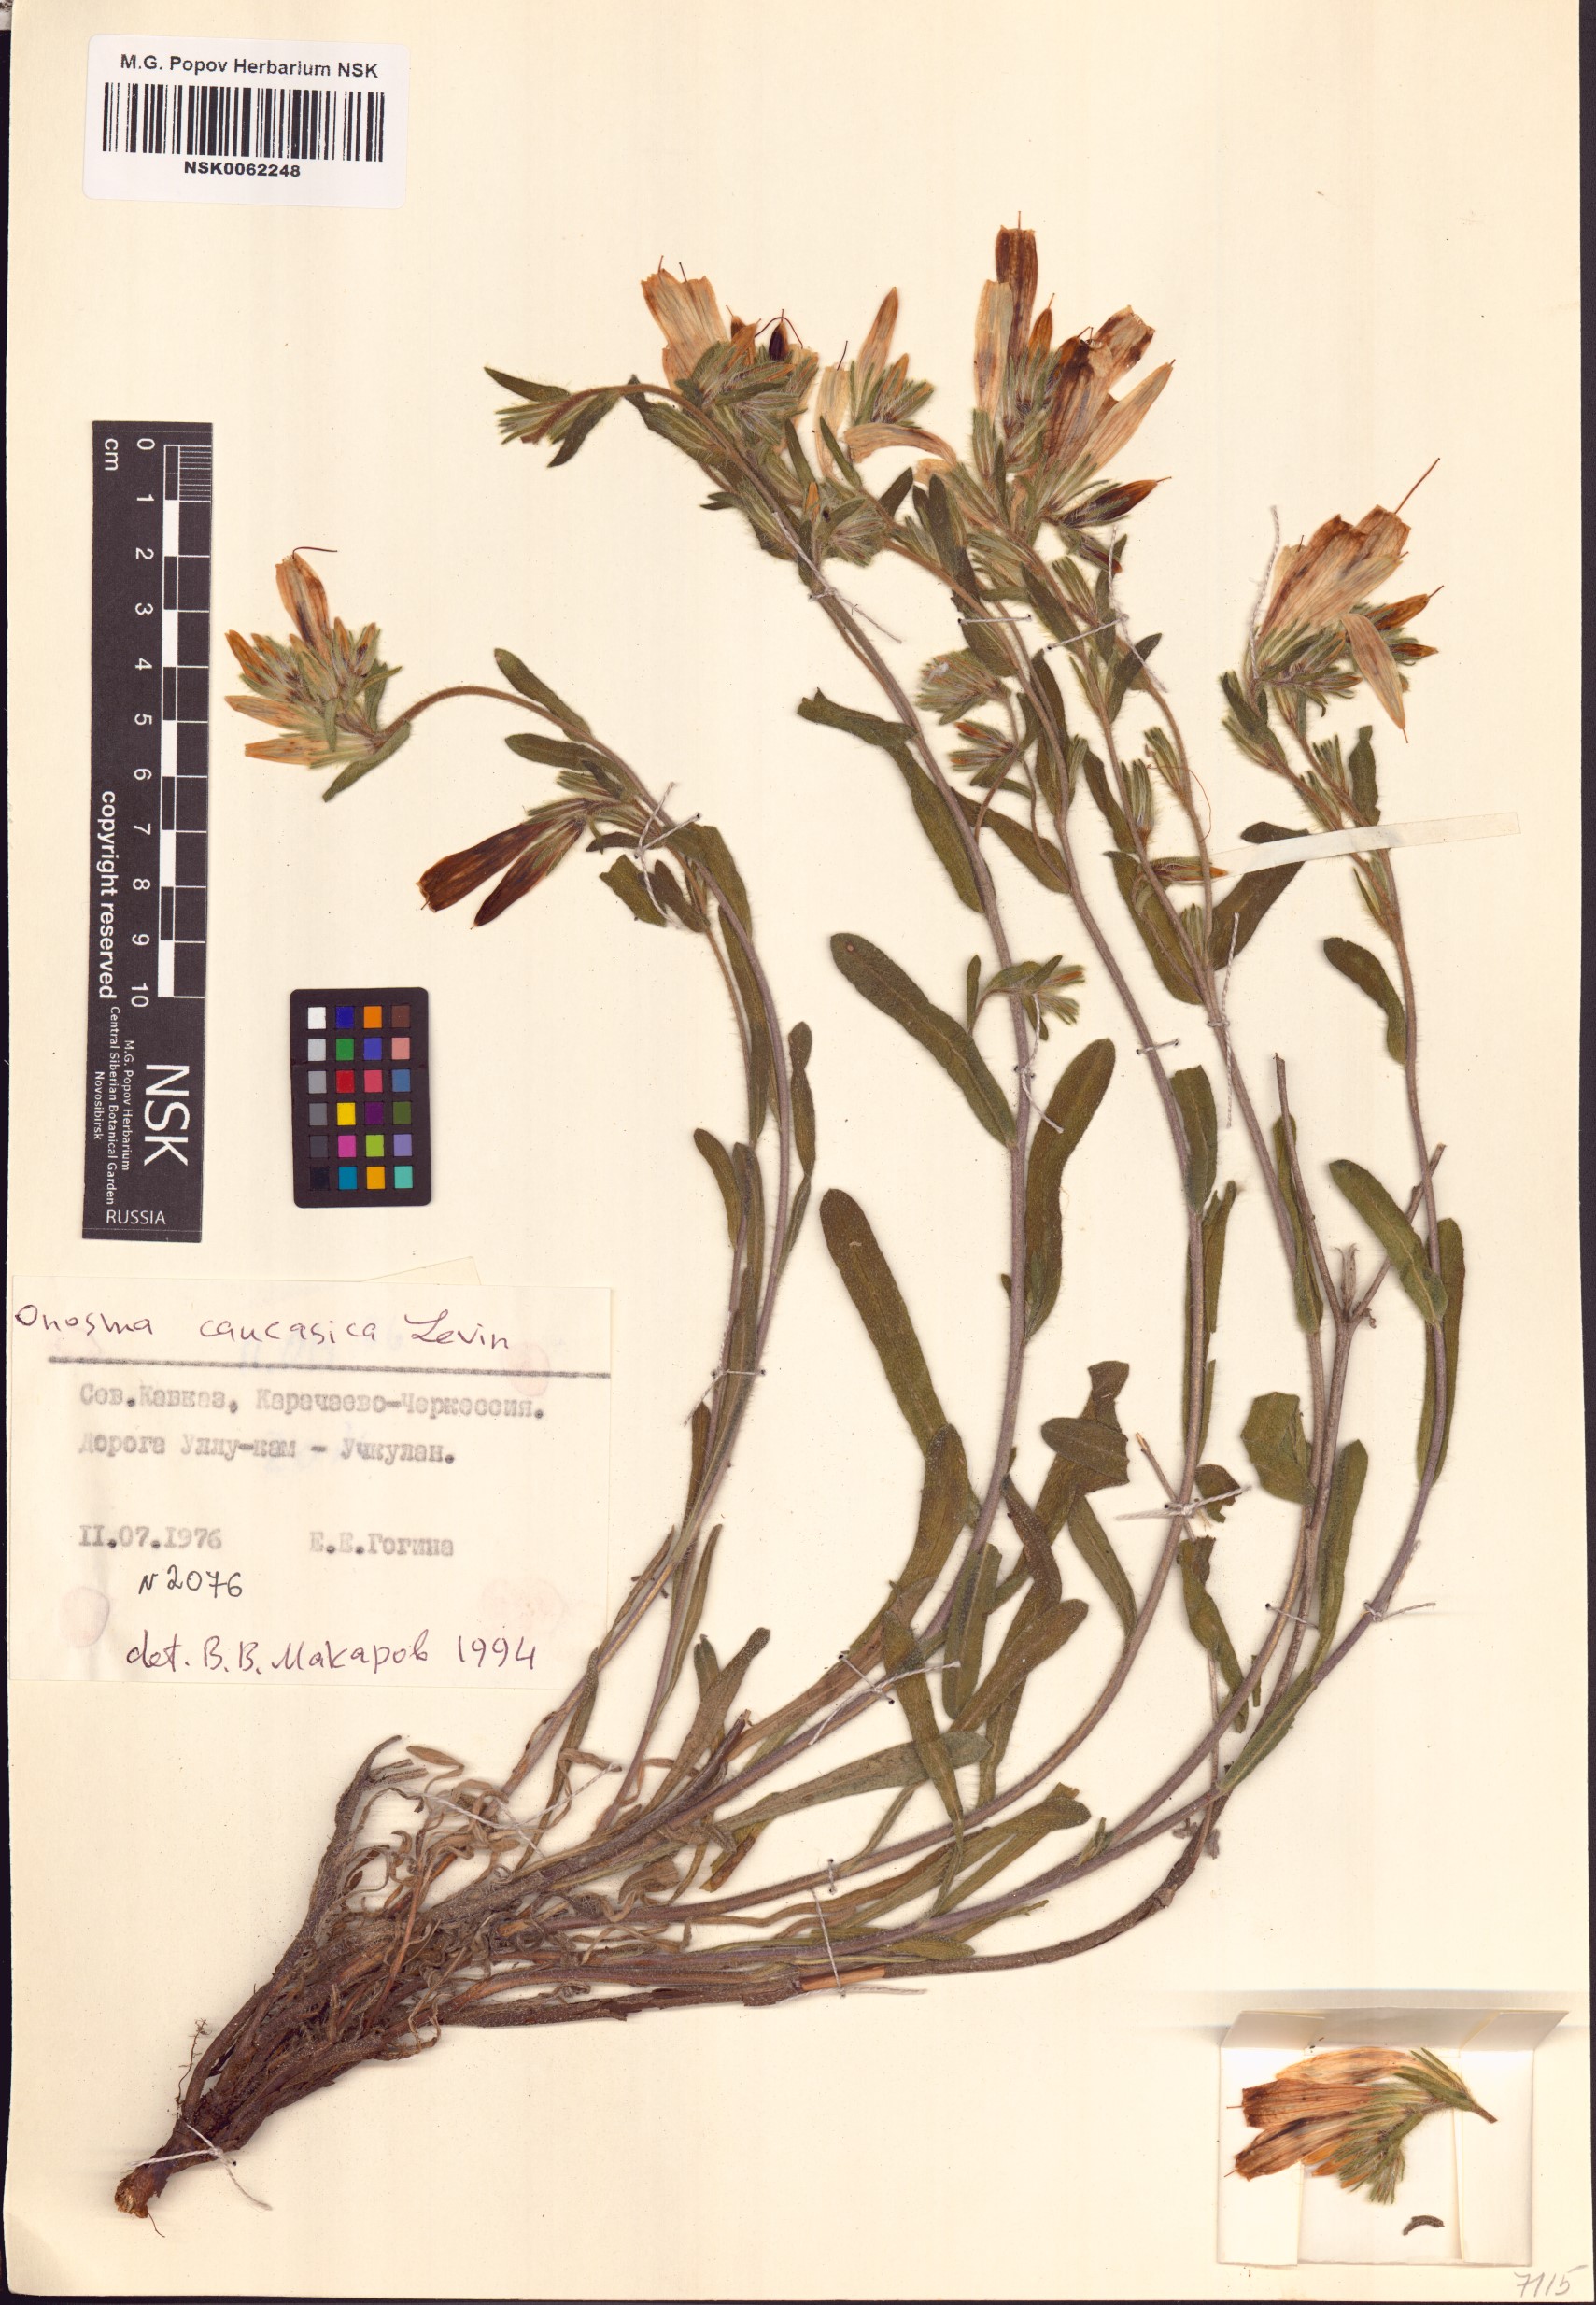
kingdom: Plantae
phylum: Tracheophyta
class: Magnoliopsida
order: Boraginales
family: Boraginaceae
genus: Onosma
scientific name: Onosma caucasica
